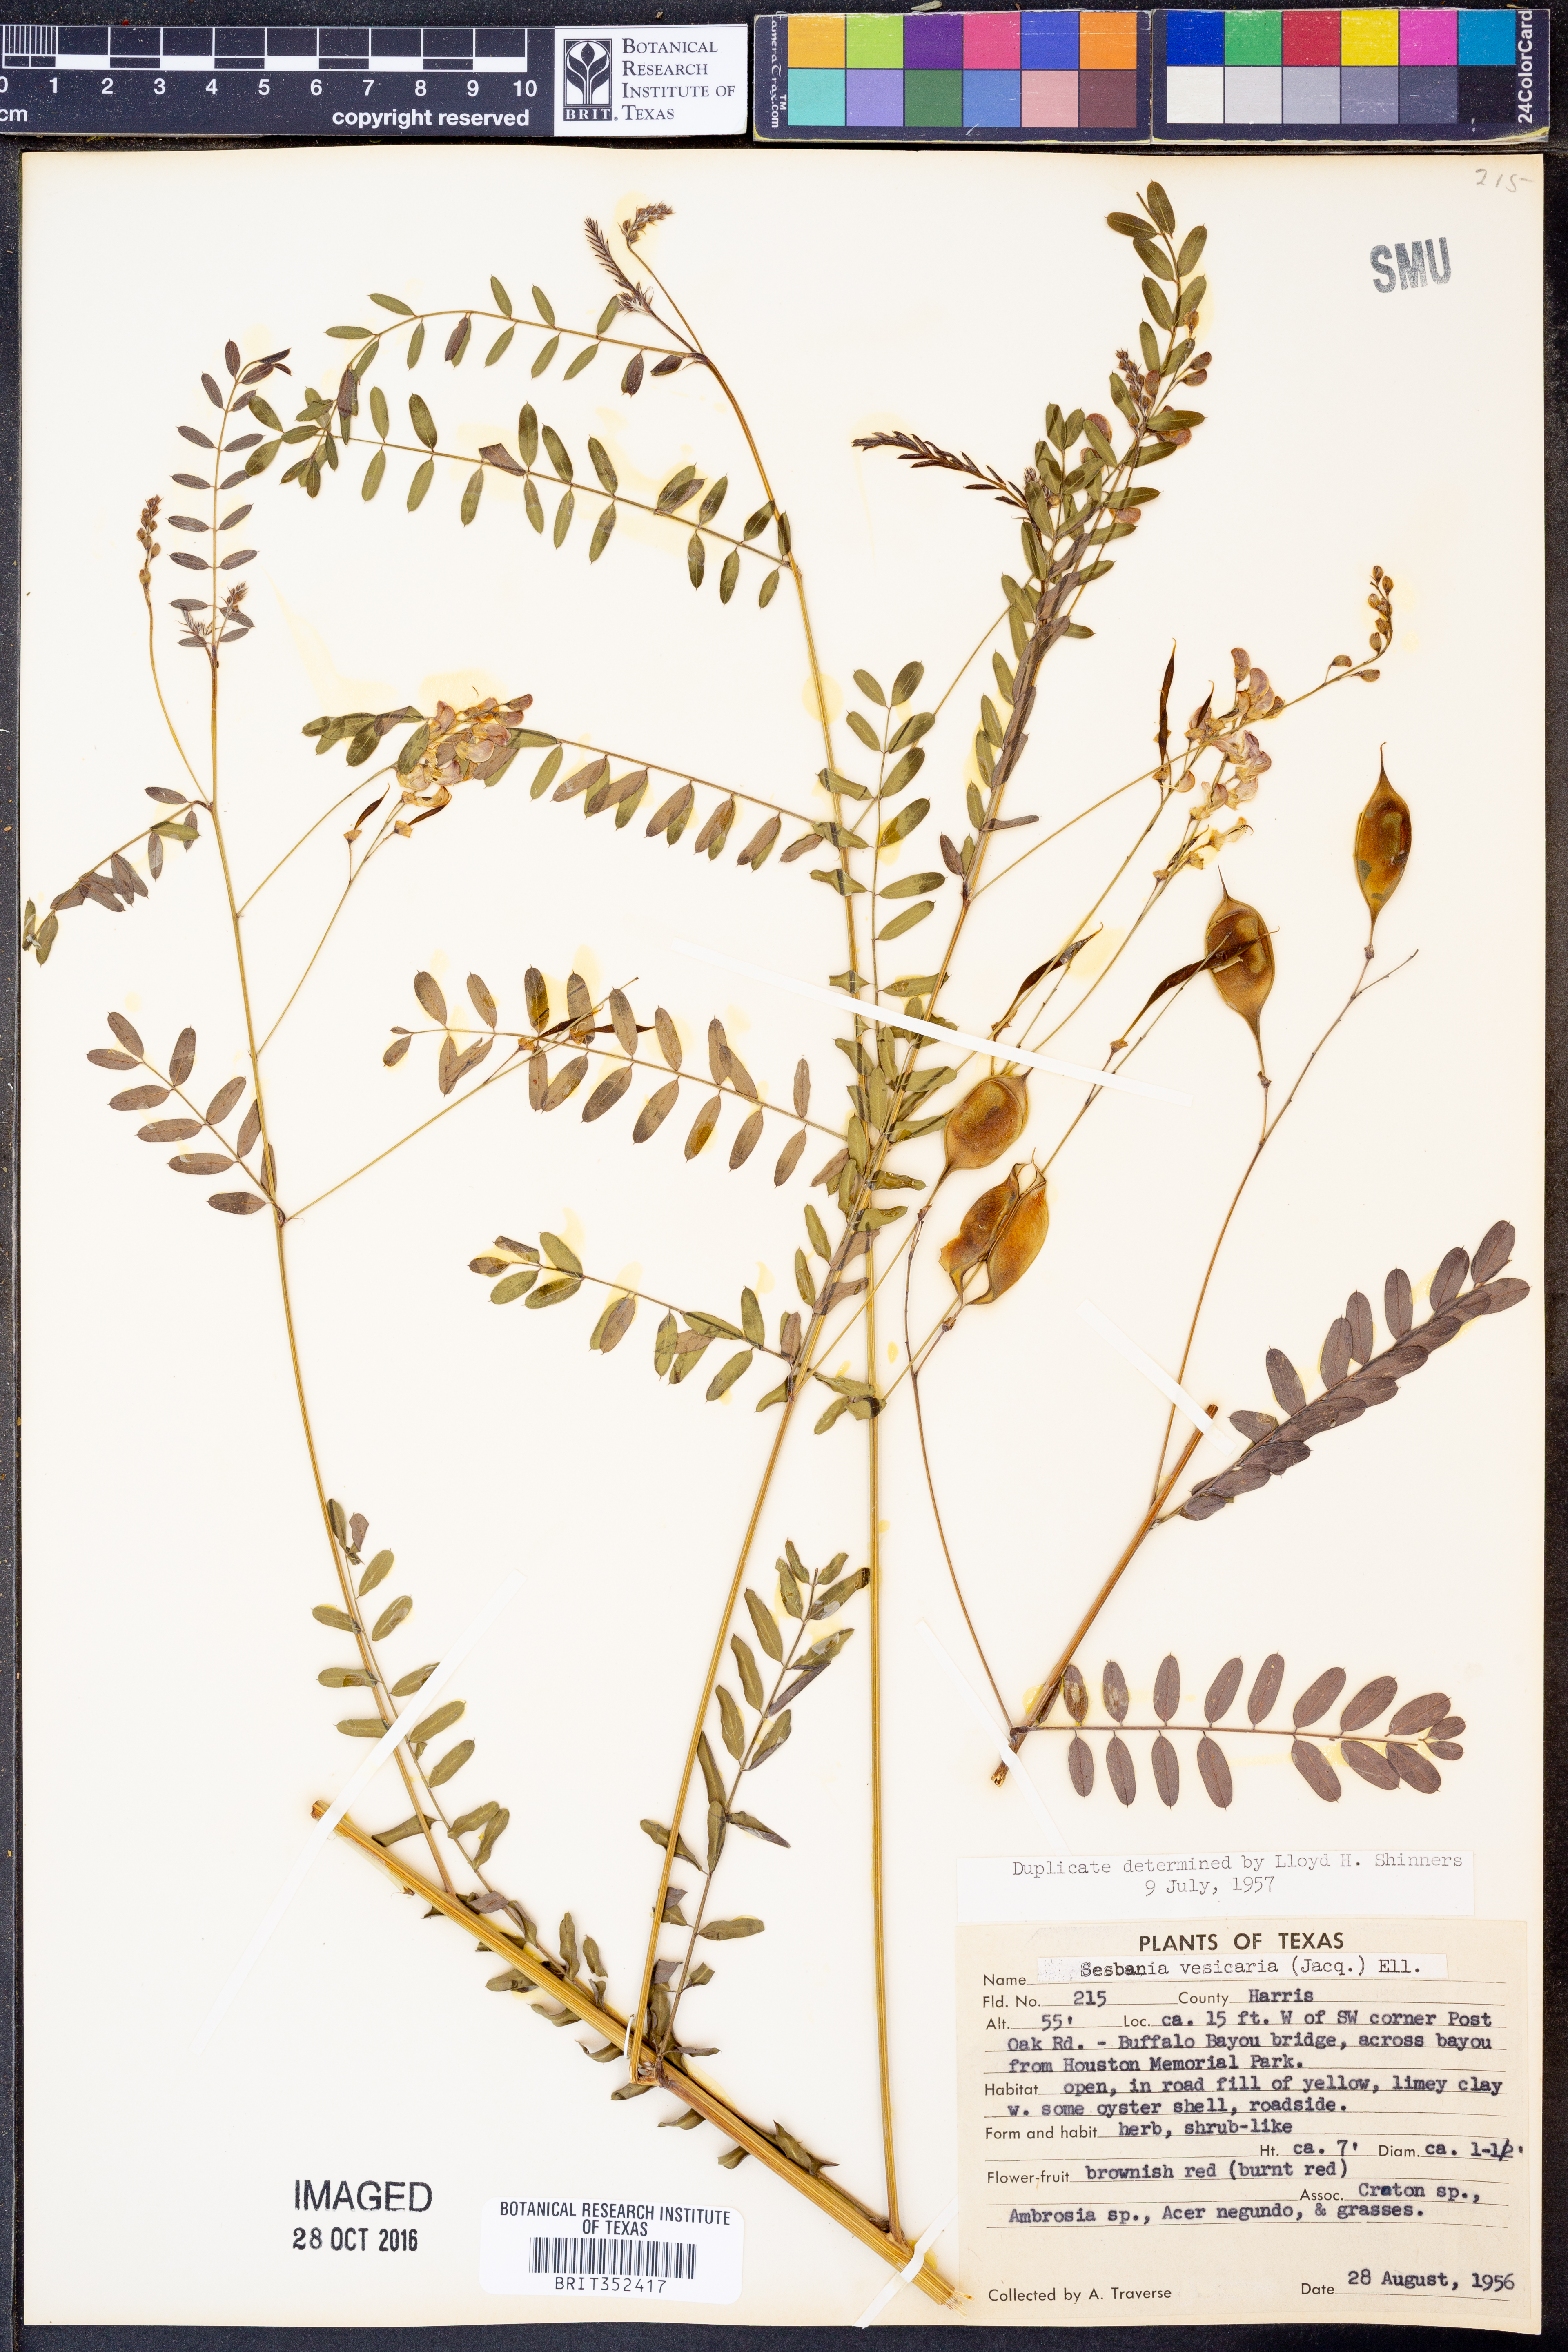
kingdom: Plantae
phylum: Tracheophyta
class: Magnoliopsida
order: Fabales
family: Fabaceae
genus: Sesbania
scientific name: Sesbania vesicaria
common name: Bagpod
